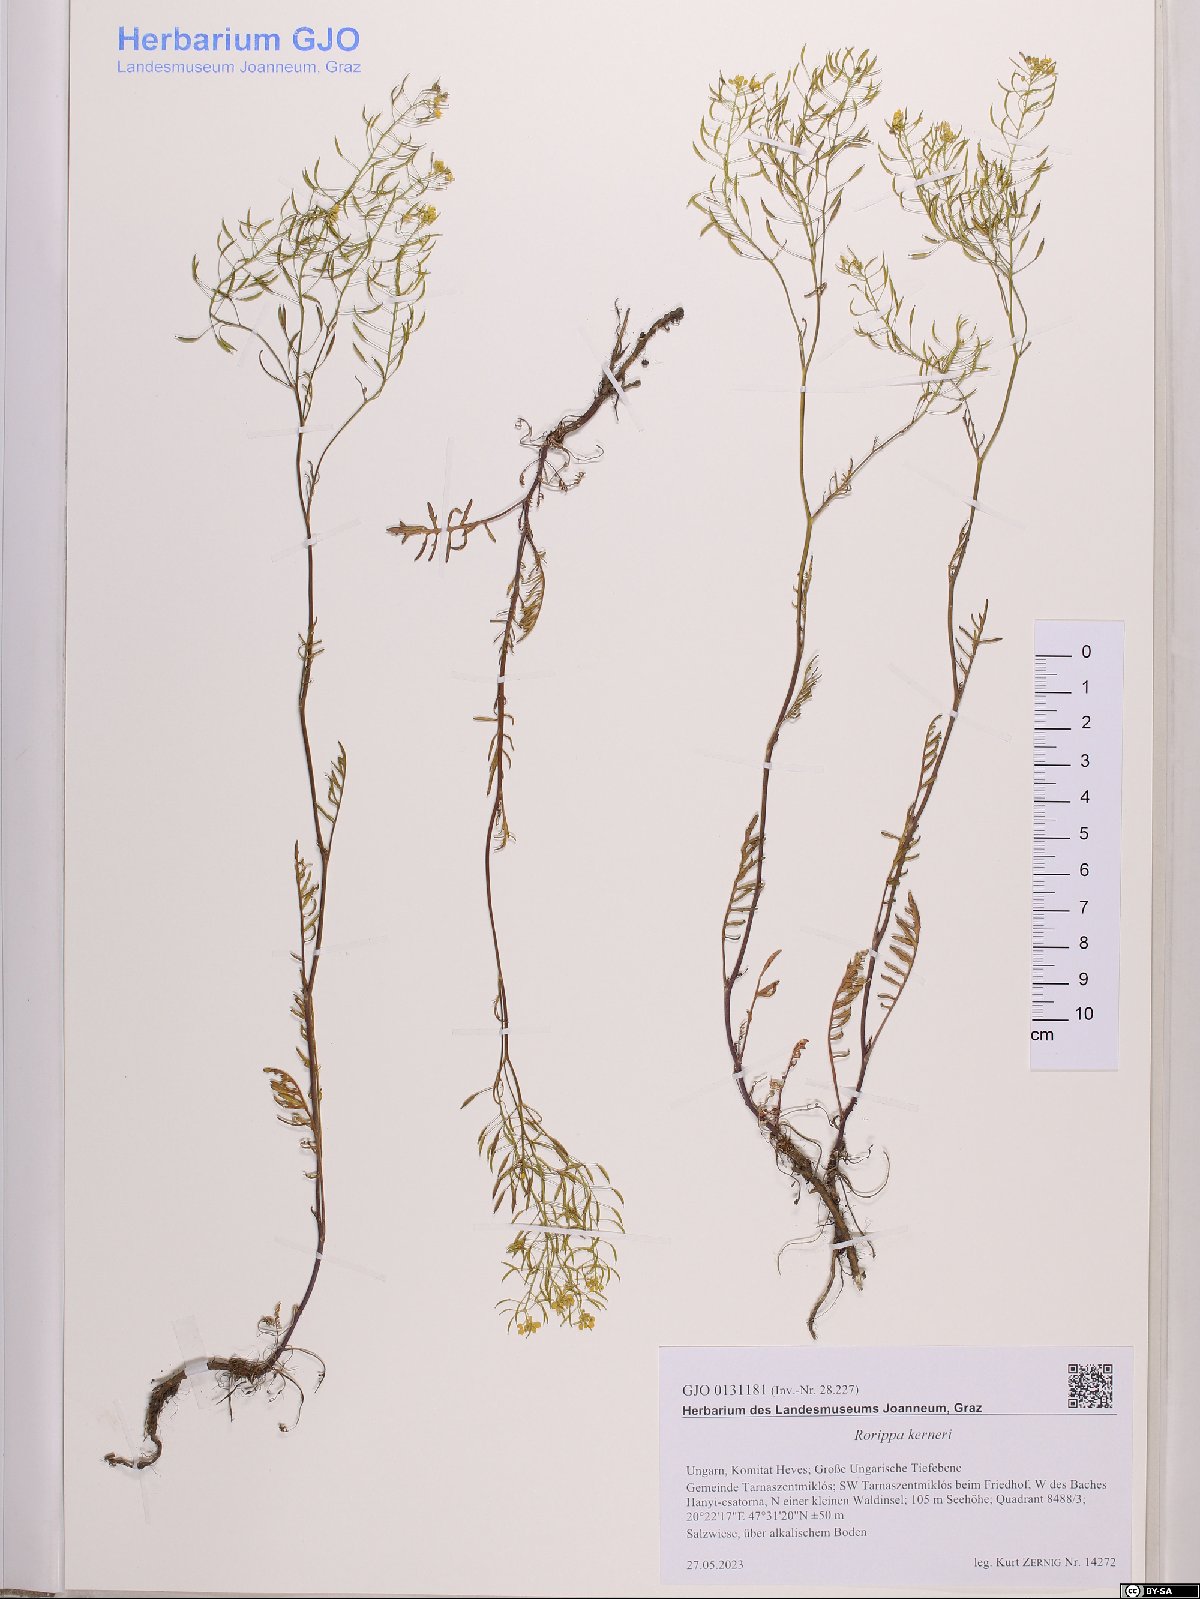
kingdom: Plantae
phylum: Tracheophyta
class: Magnoliopsida
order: Brassicales
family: Brassicaceae
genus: Rorippa
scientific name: Rorippa kerneri
